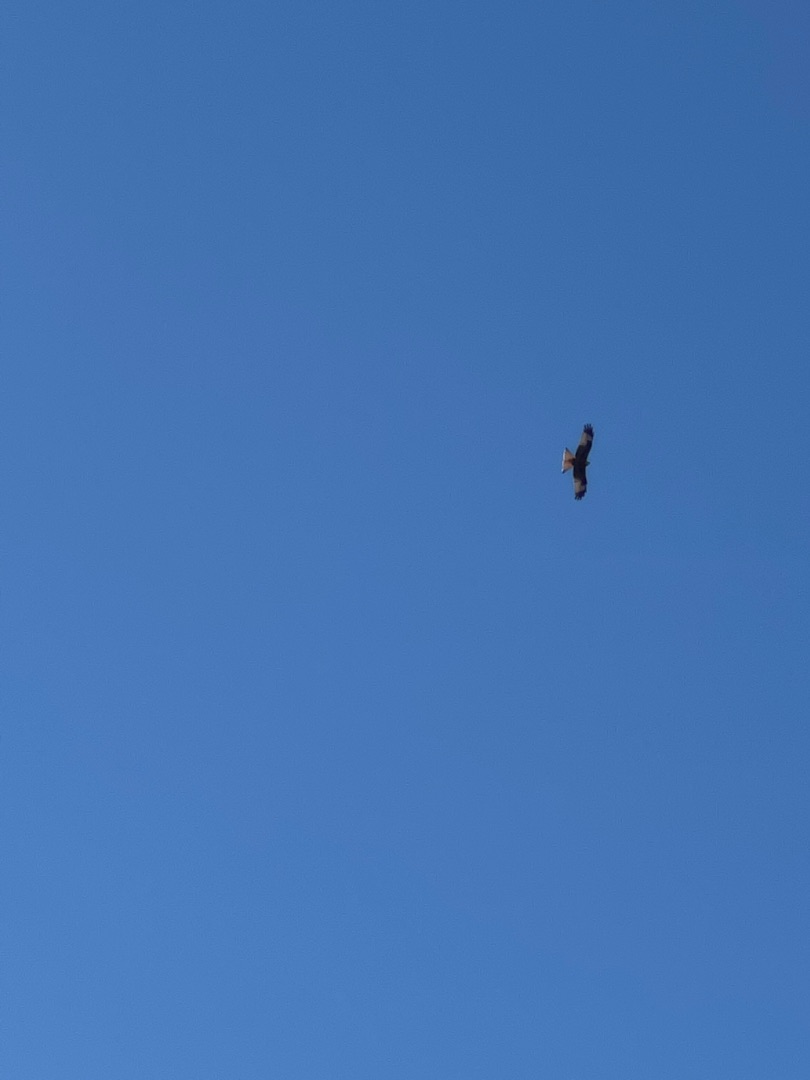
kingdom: Animalia
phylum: Chordata
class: Aves
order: Accipitriformes
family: Accipitridae
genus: Milvus
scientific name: Milvus milvus
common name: Rød glente
